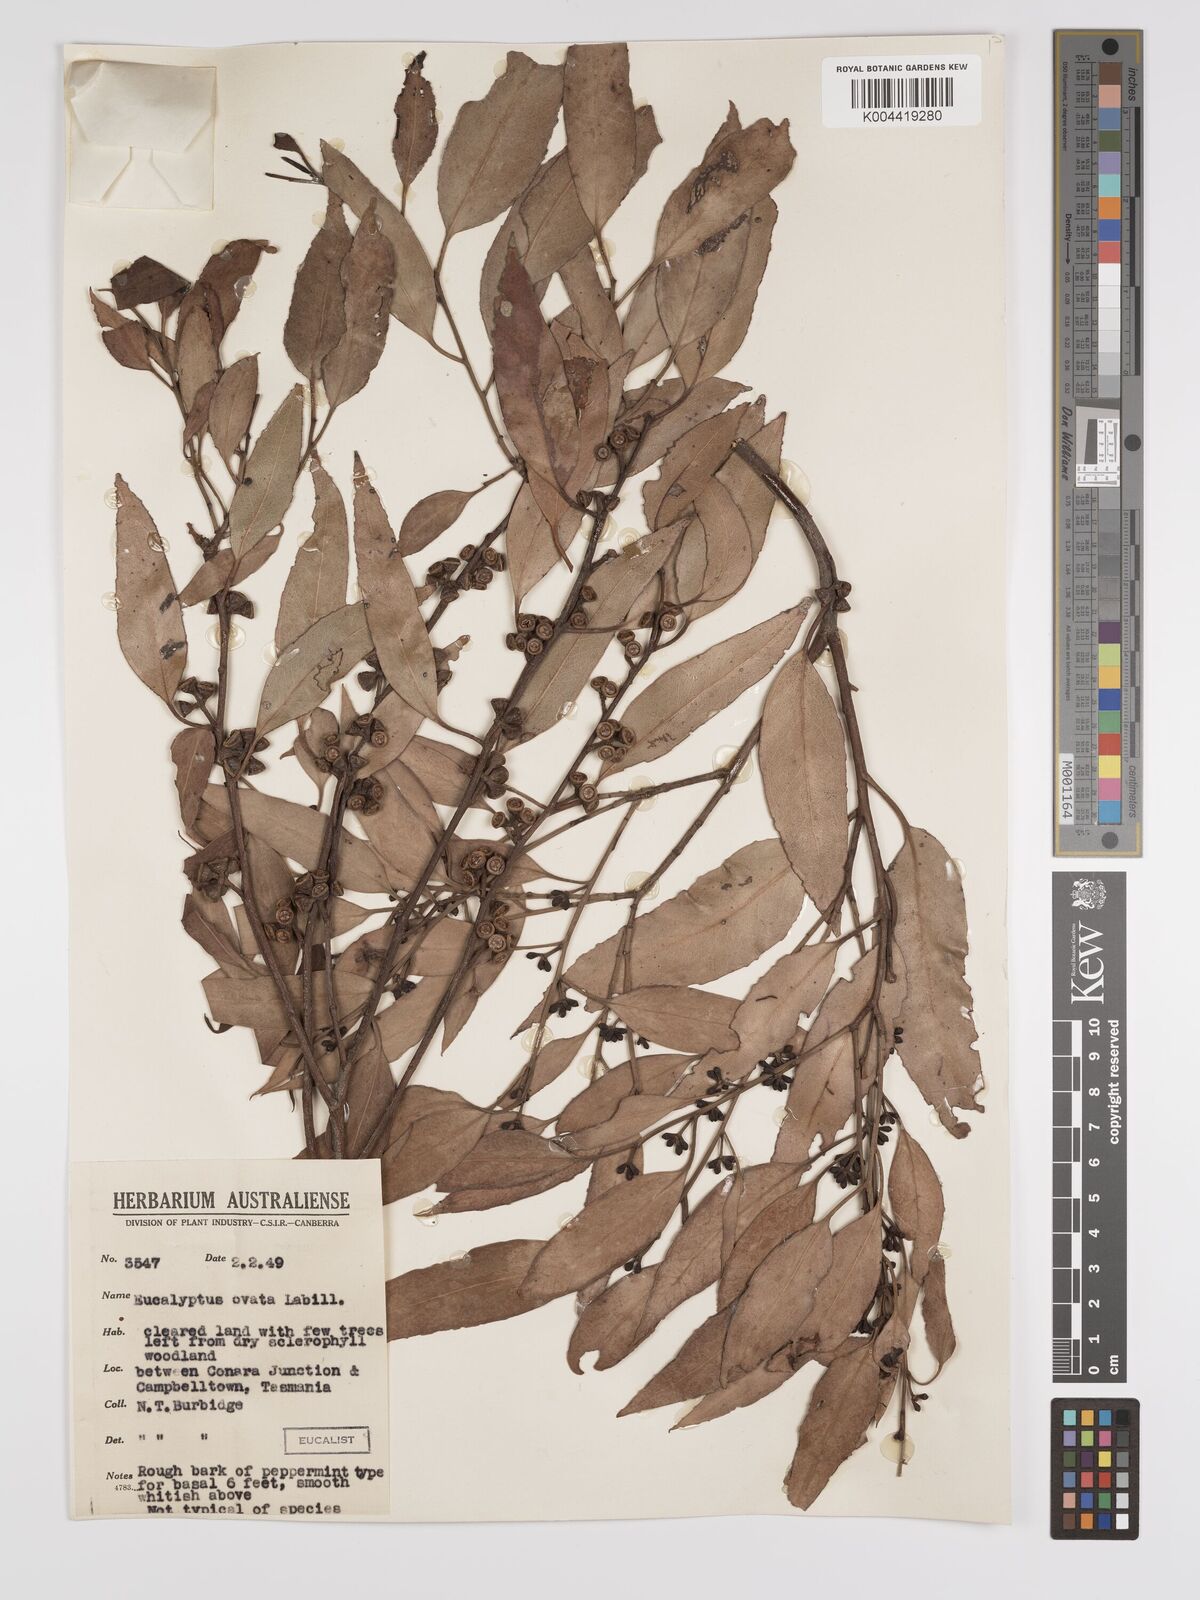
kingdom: Plantae
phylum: Tracheophyta
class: Magnoliopsida
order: Myrtales
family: Myrtaceae
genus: Eucalyptus
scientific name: Eucalyptus ovata
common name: Black-gum
